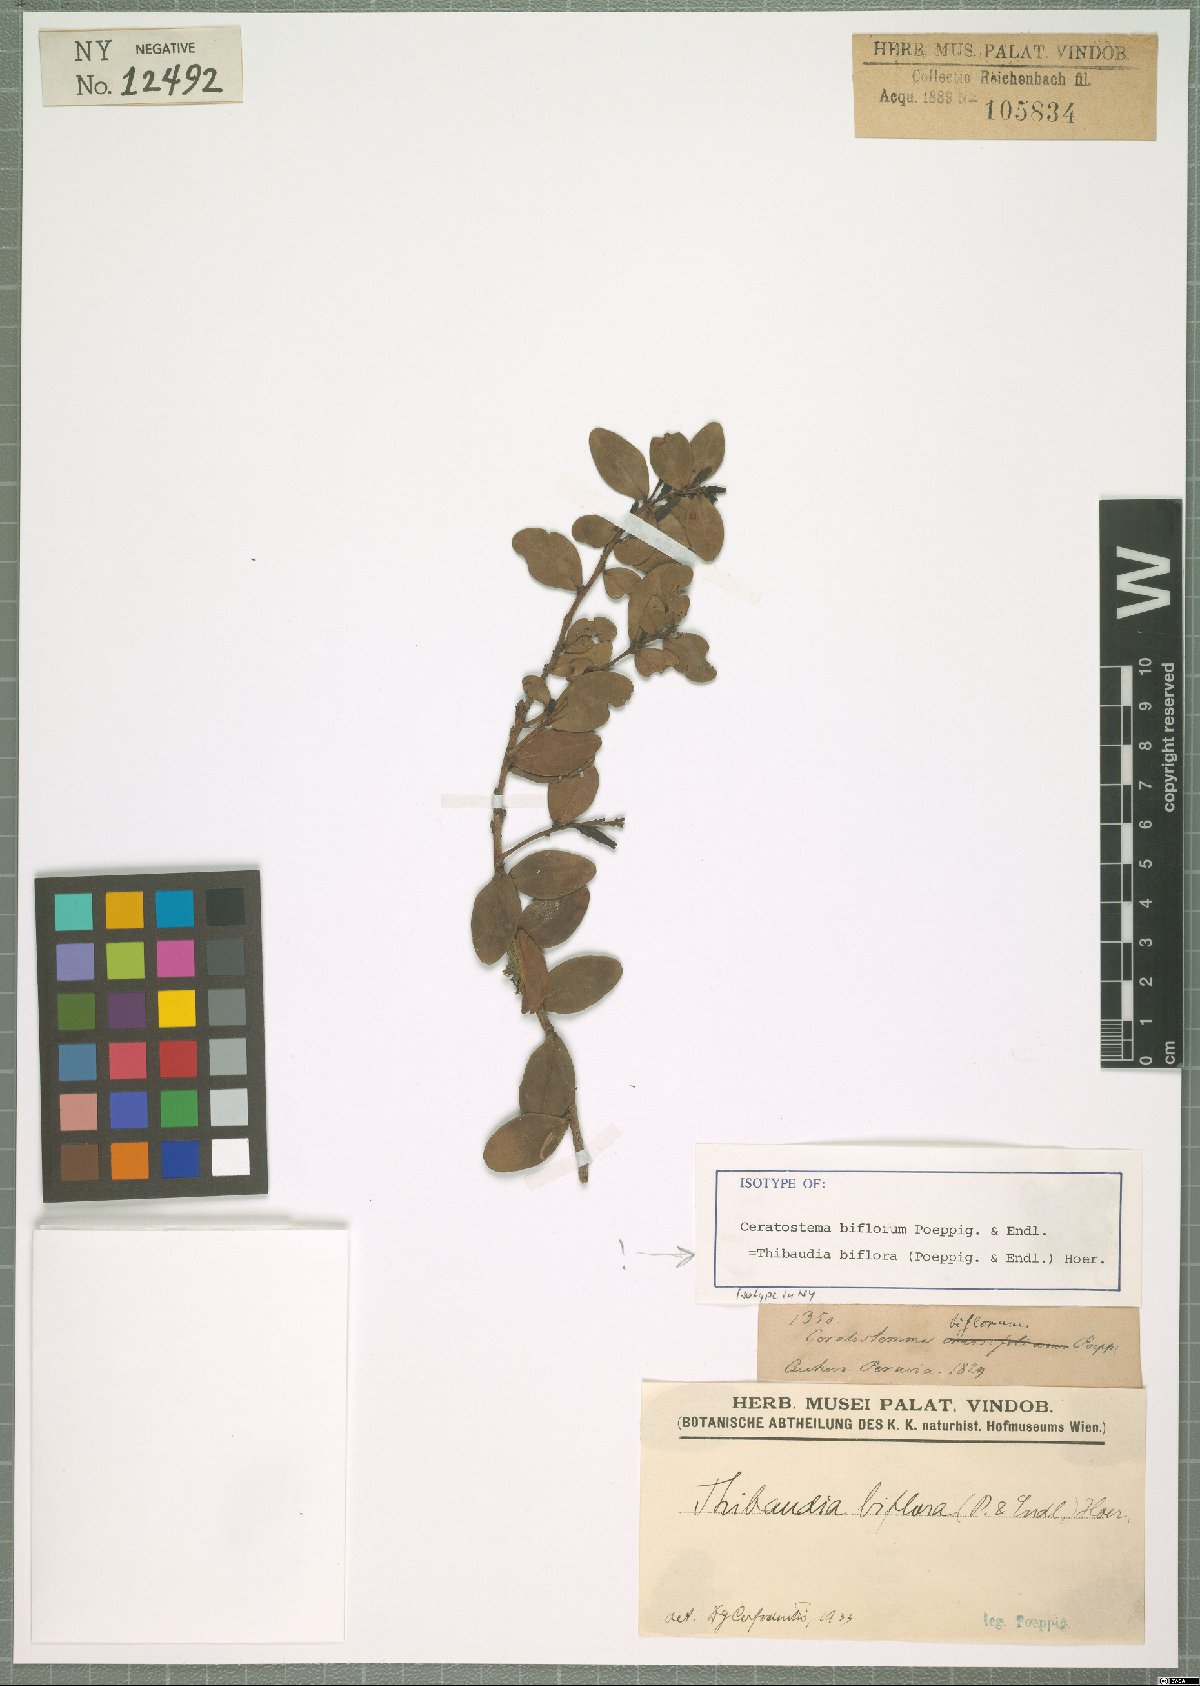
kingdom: Plantae
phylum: Tracheophyta
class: Magnoliopsida
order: Ericales
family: Ericaceae
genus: Thibaudia
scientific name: Thibaudia biflora
